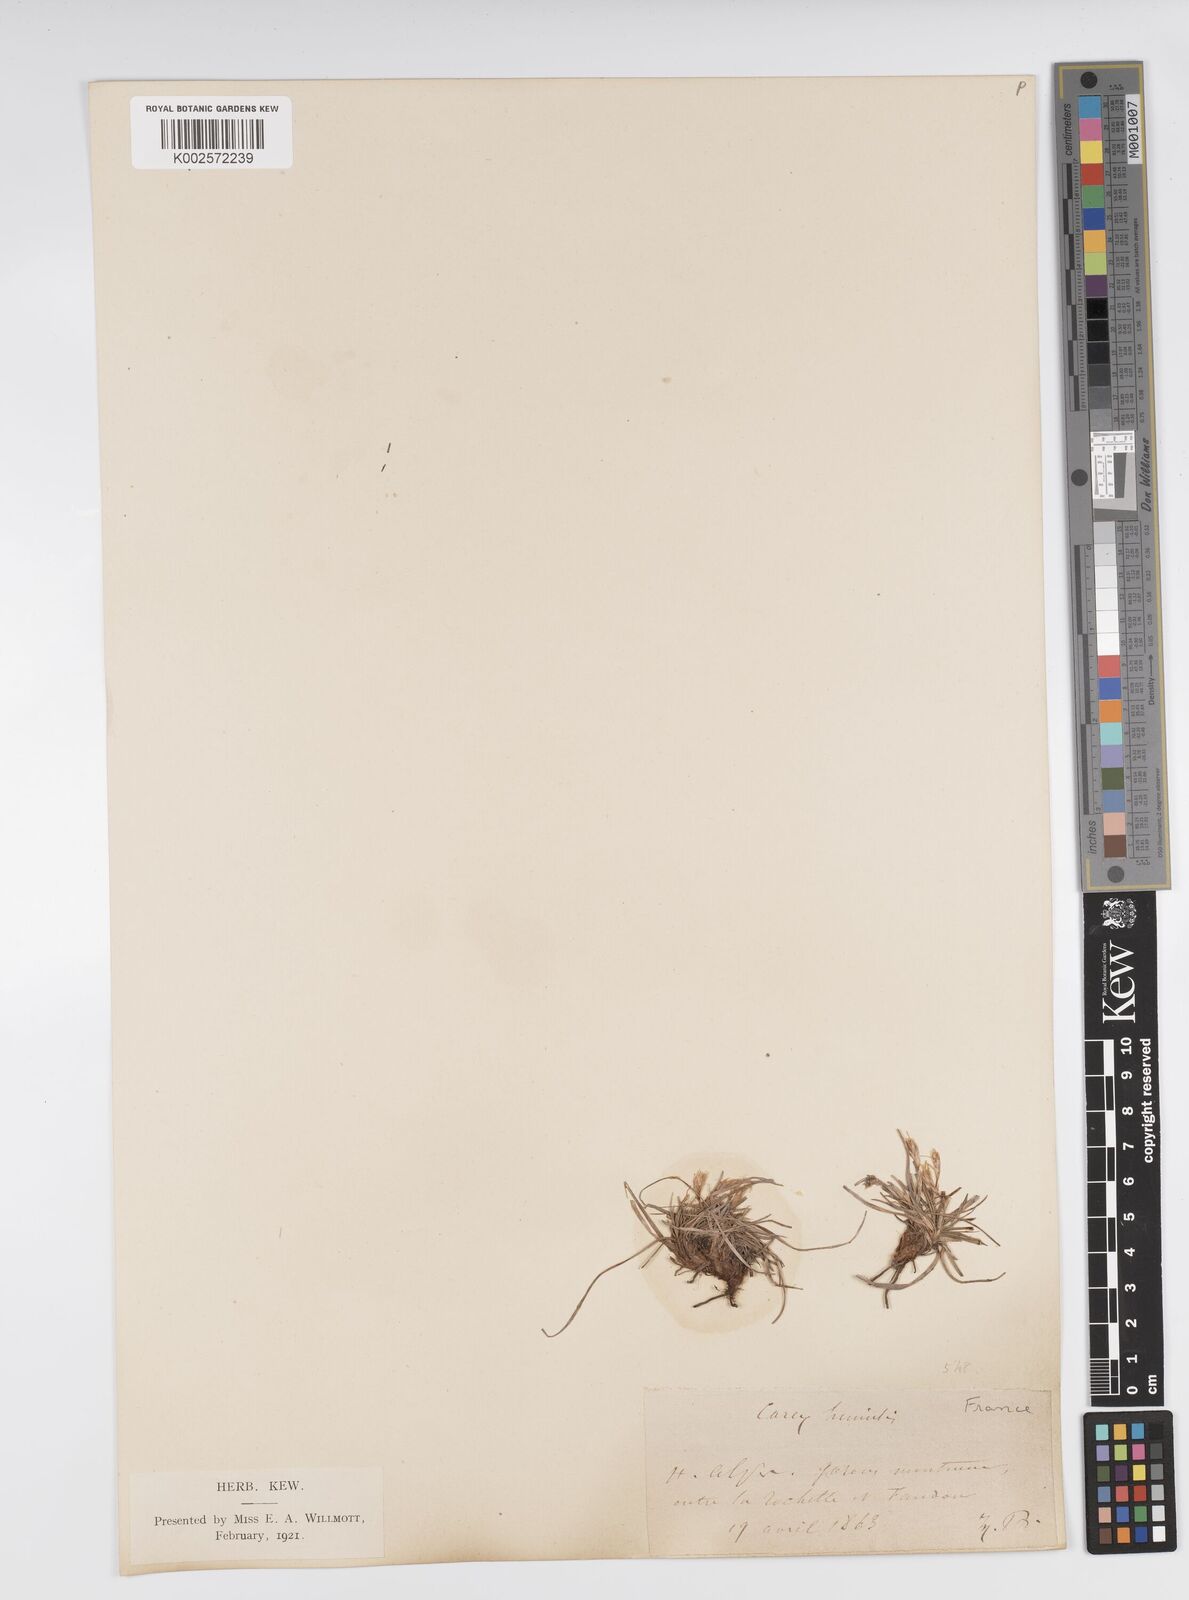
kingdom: Plantae
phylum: Tracheophyta
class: Liliopsida
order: Poales
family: Cyperaceae
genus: Carex
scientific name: Carex humilis
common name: Dwarf sedge
